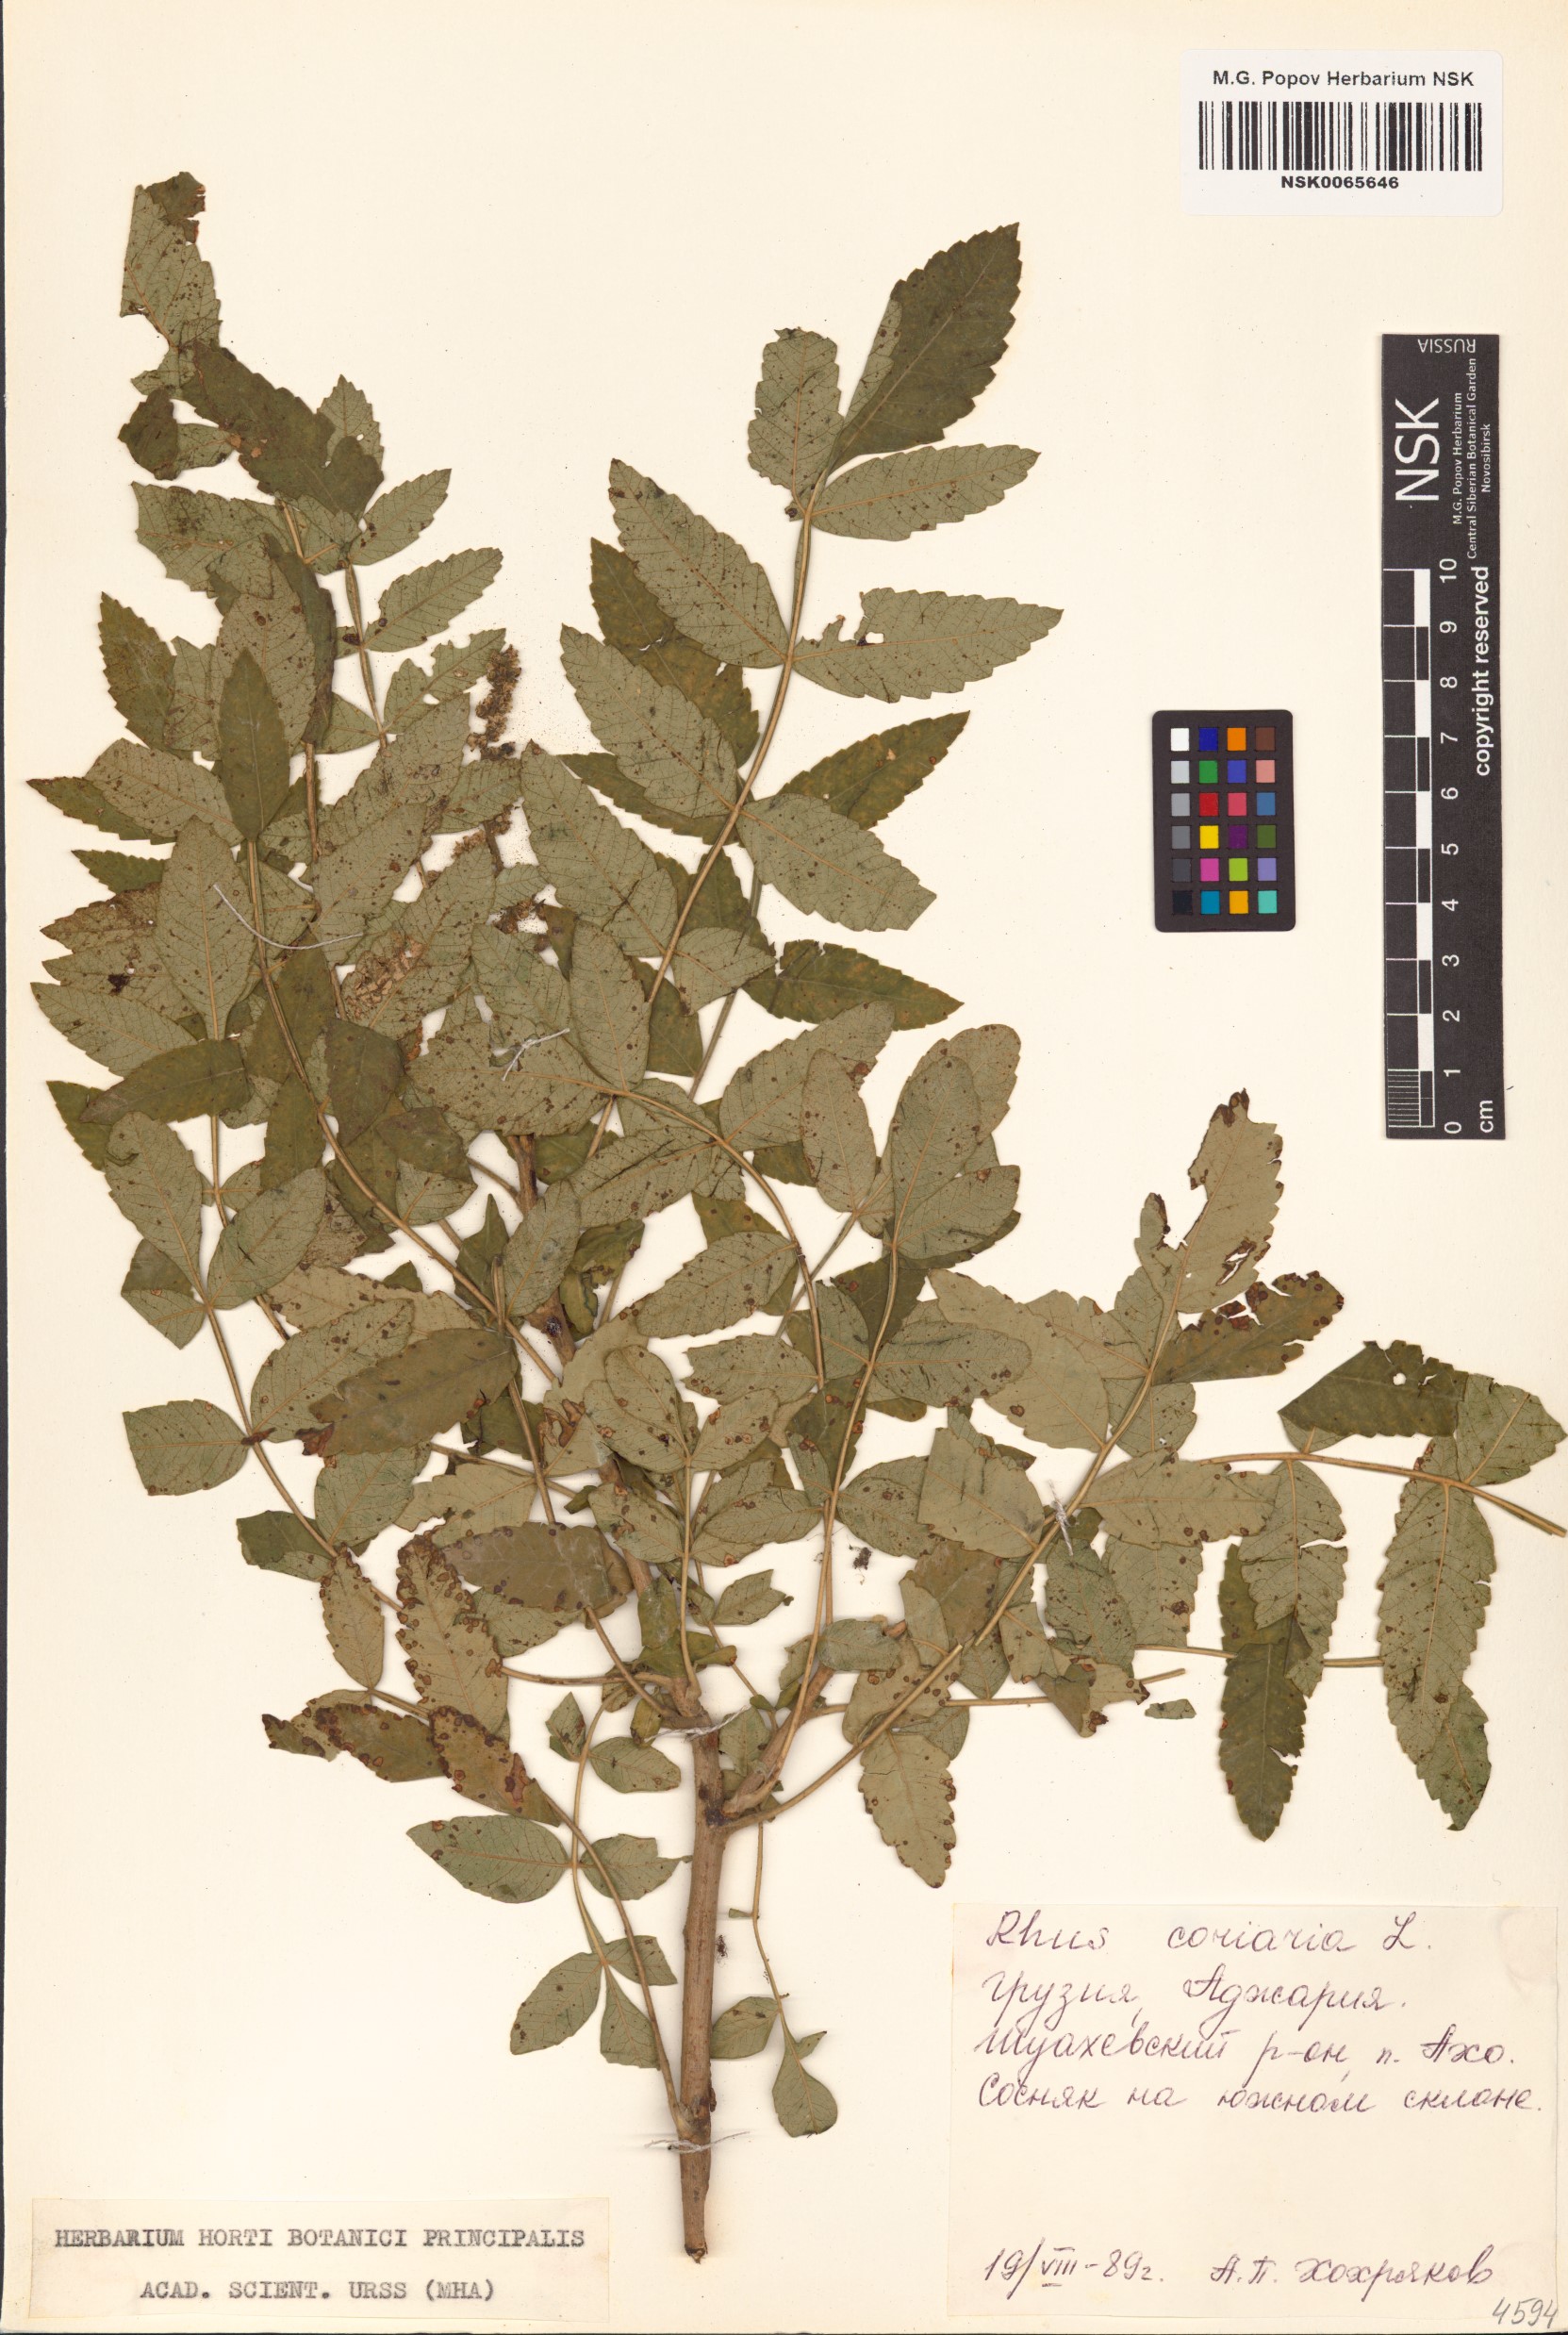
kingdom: Plantae
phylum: Tracheophyta
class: Magnoliopsida
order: Sapindales
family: Anacardiaceae
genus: Rhus
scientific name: Rhus coriaria
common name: Tanner's sumach
